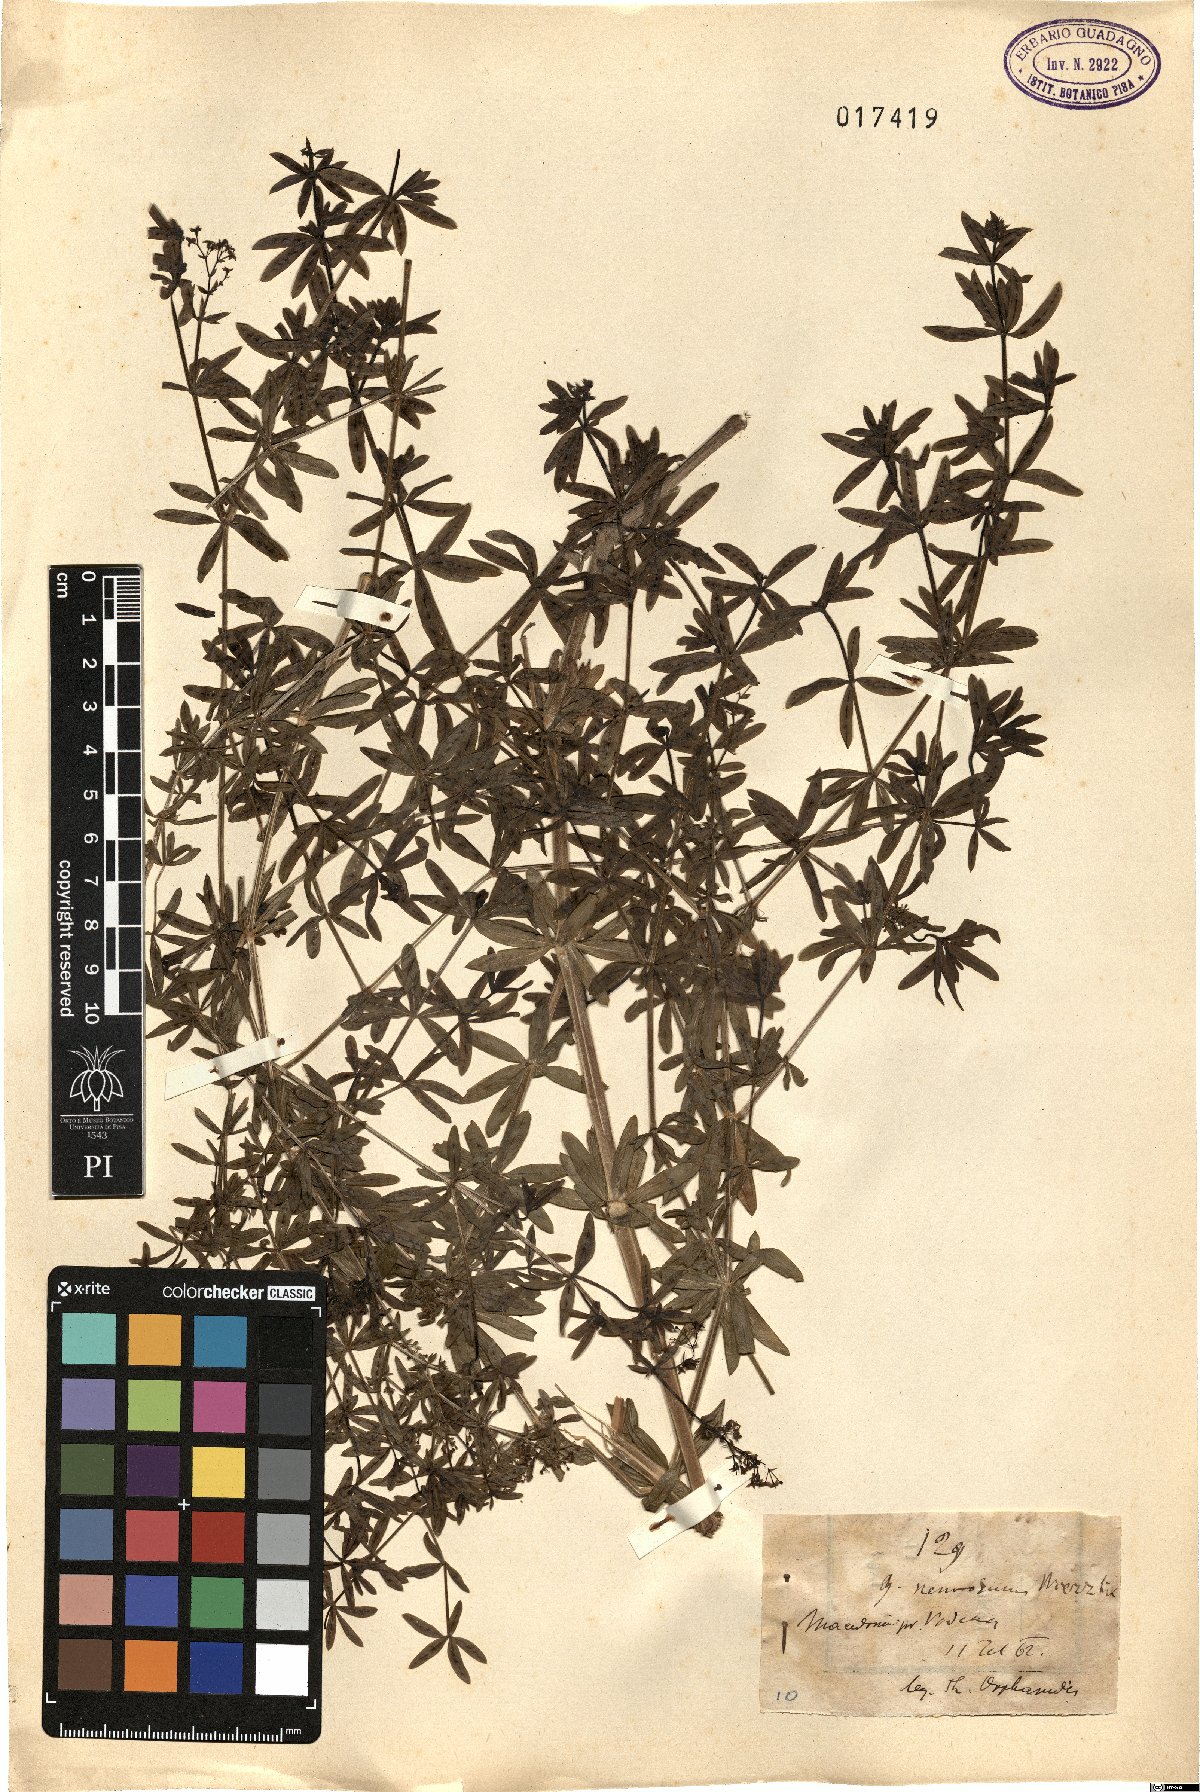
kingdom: Plantae
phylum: Tracheophyta
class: Magnoliopsida
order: Gentianales
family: Rubiaceae
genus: Galium
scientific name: Galium mollugo
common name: Hedge bedstraw
